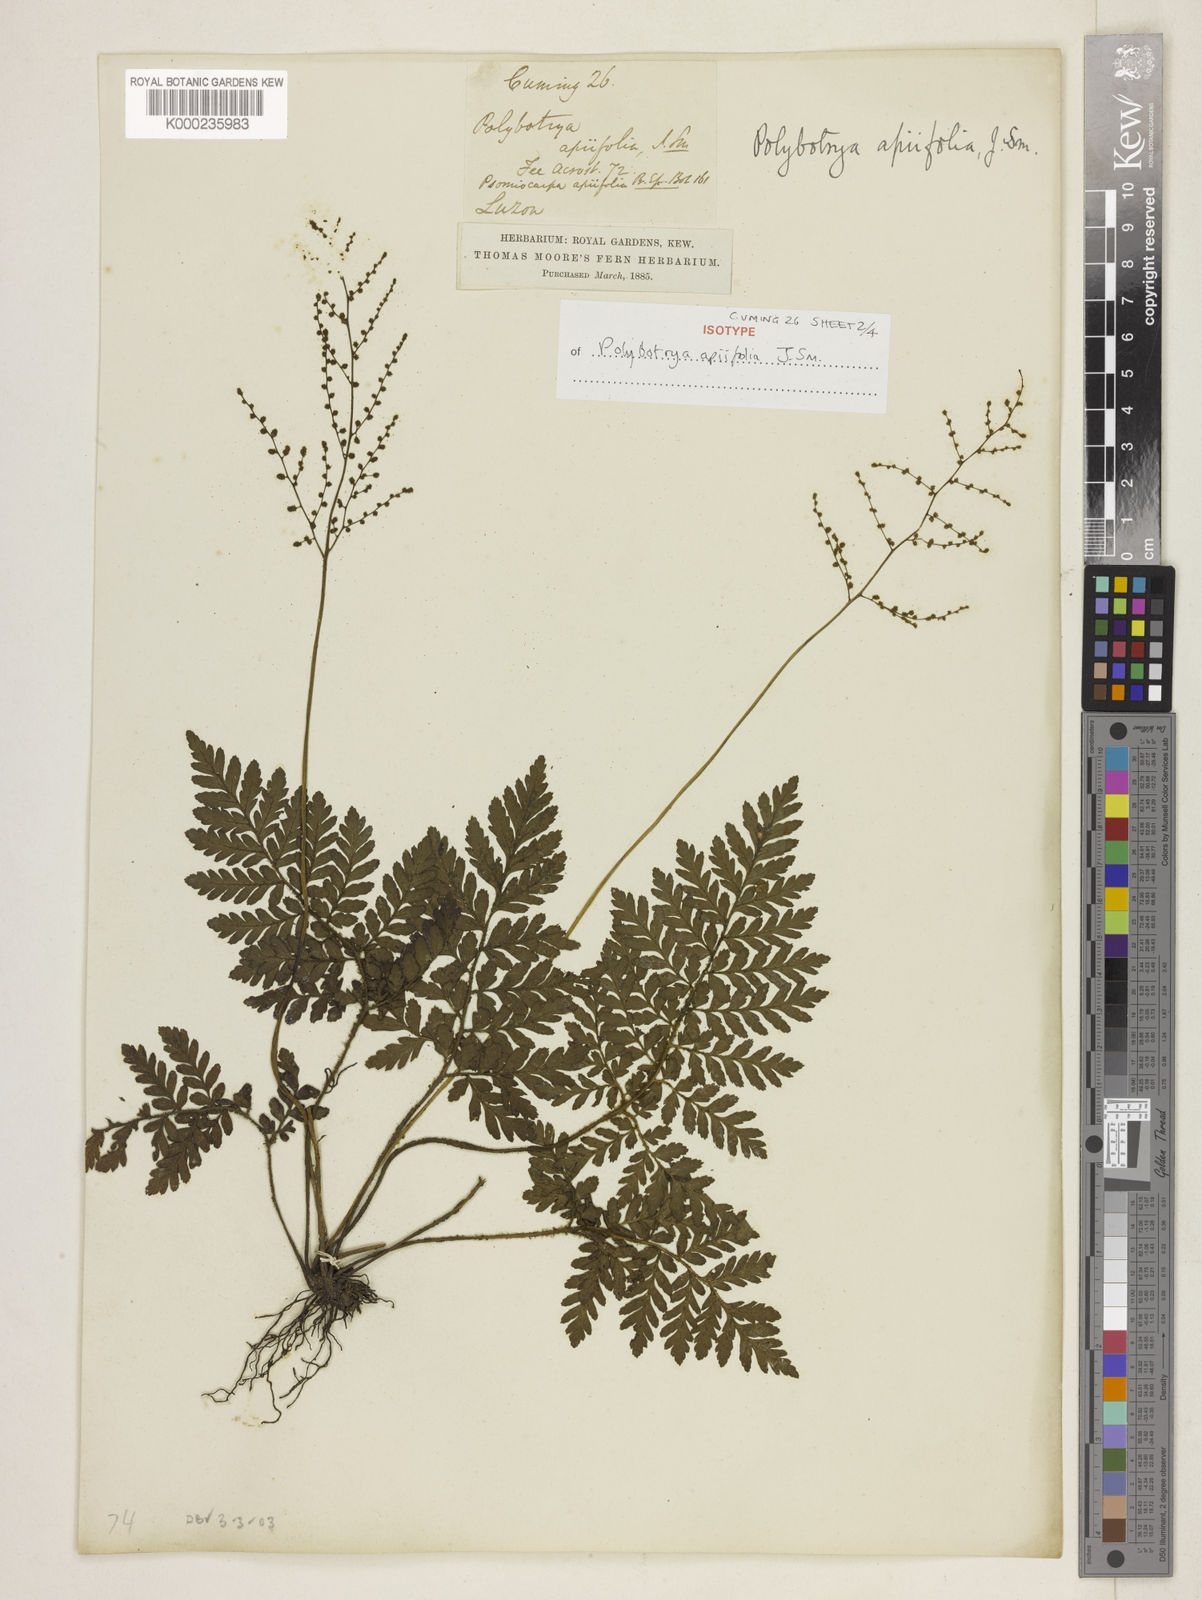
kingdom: Plantae
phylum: Tracheophyta
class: Polypodiopsida
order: Polypodiales
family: Tectariaceae
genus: Psomiocarpa
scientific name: Psomiocarpa
